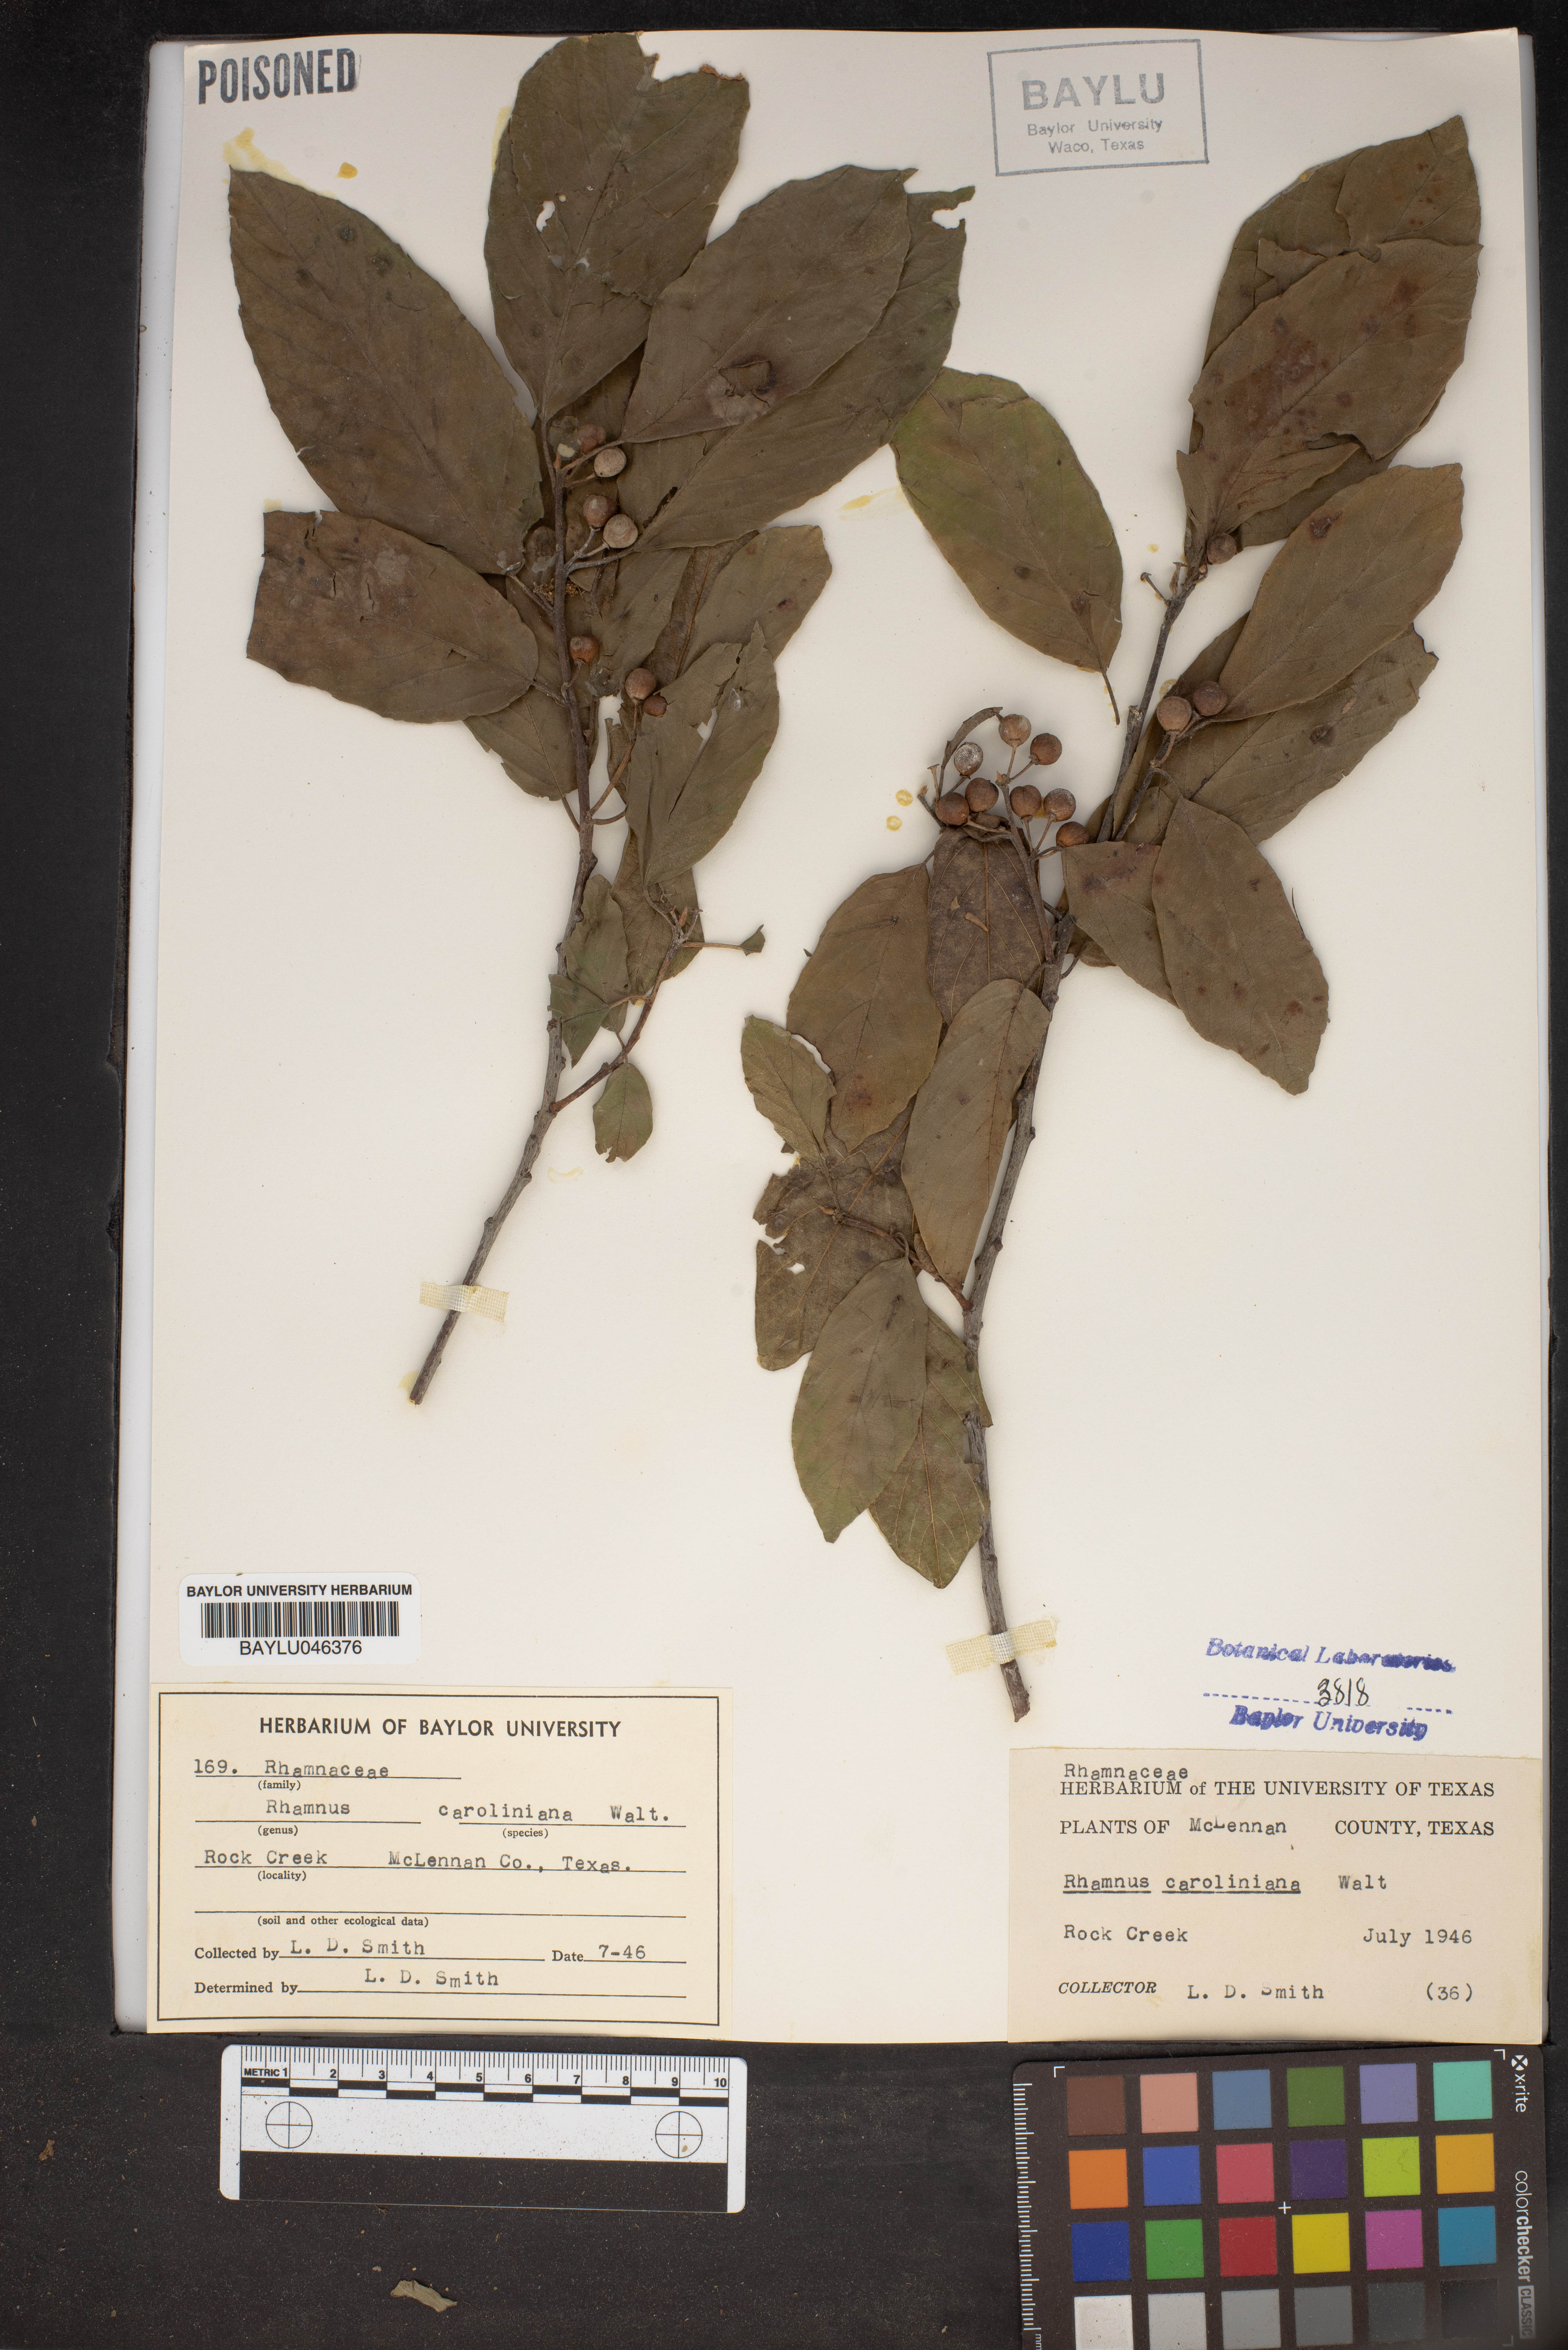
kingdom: Plantae
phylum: Tracheophyta
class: Magnoliopsida
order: Rosales
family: Rhamnaceae
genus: Frangula
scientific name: Frangula caroliniana
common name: Carolina buckthorn
